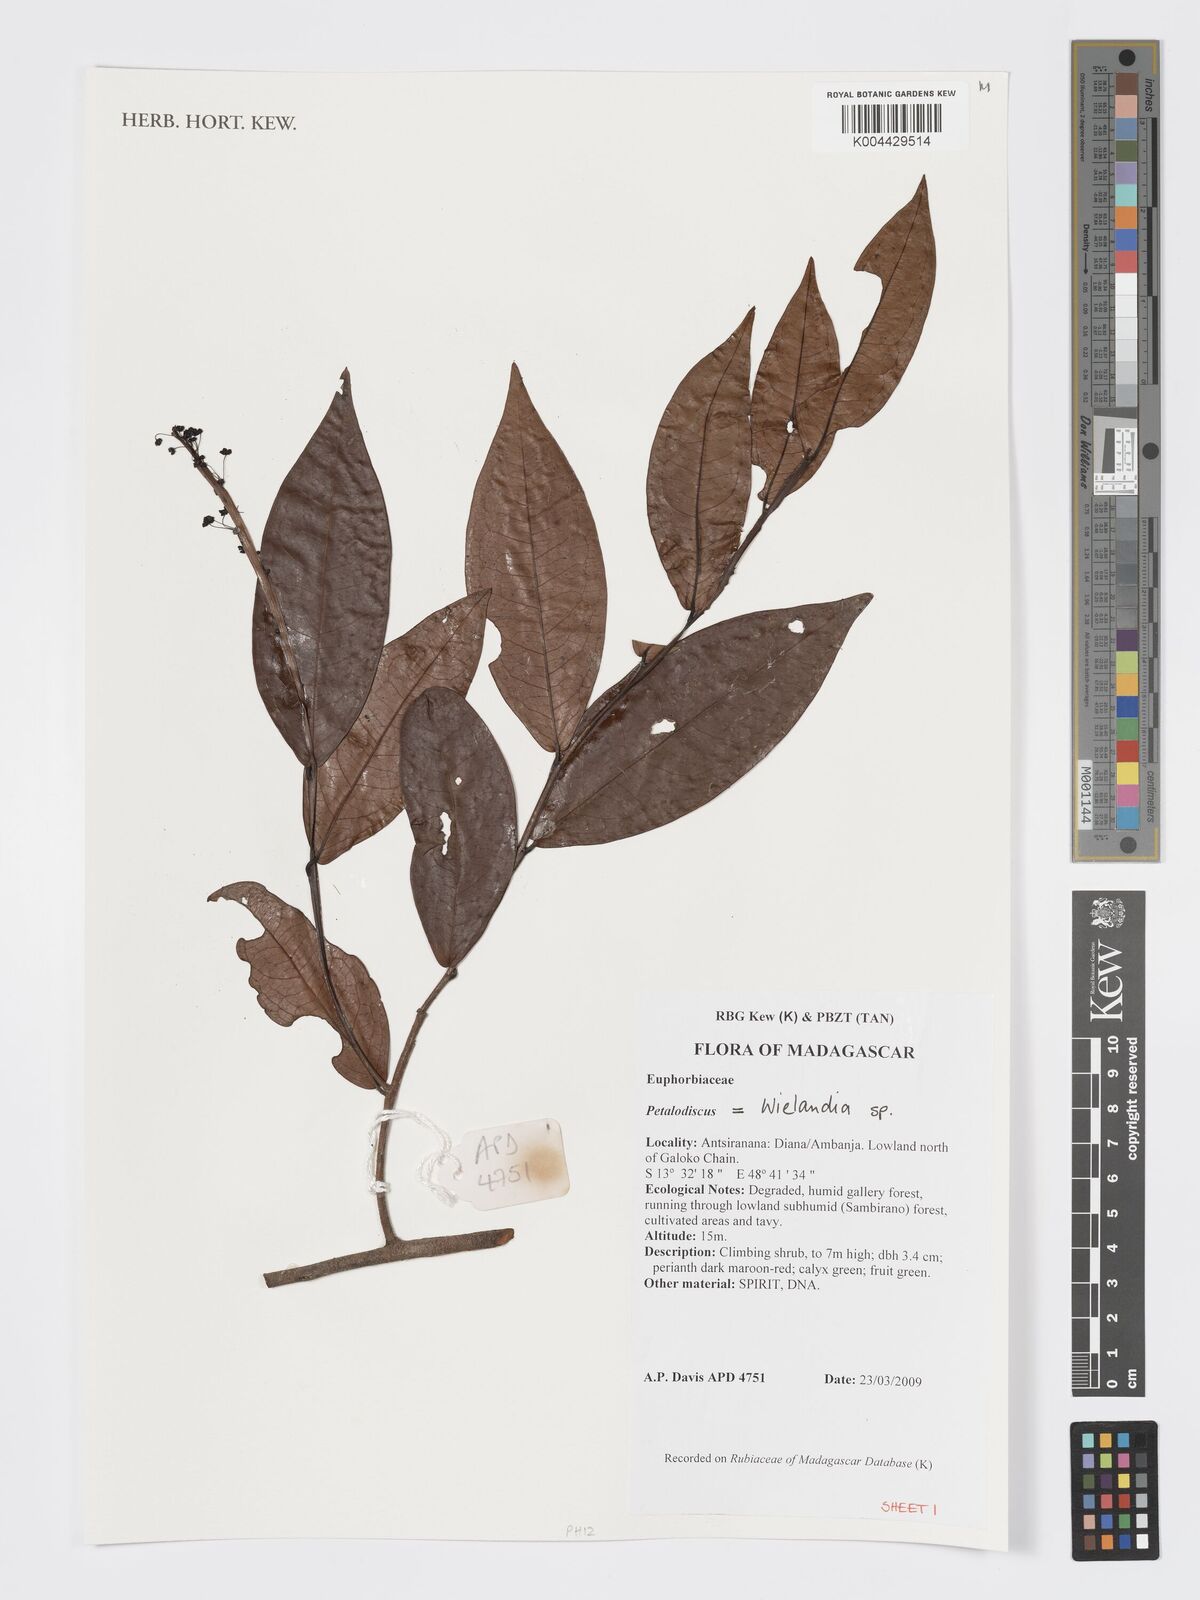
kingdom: Plantae
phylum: Tracheophyta
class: Magnoliopsida
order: Malpighiales
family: Phyllanthaceae
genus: Wielandia
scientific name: Wielandia
